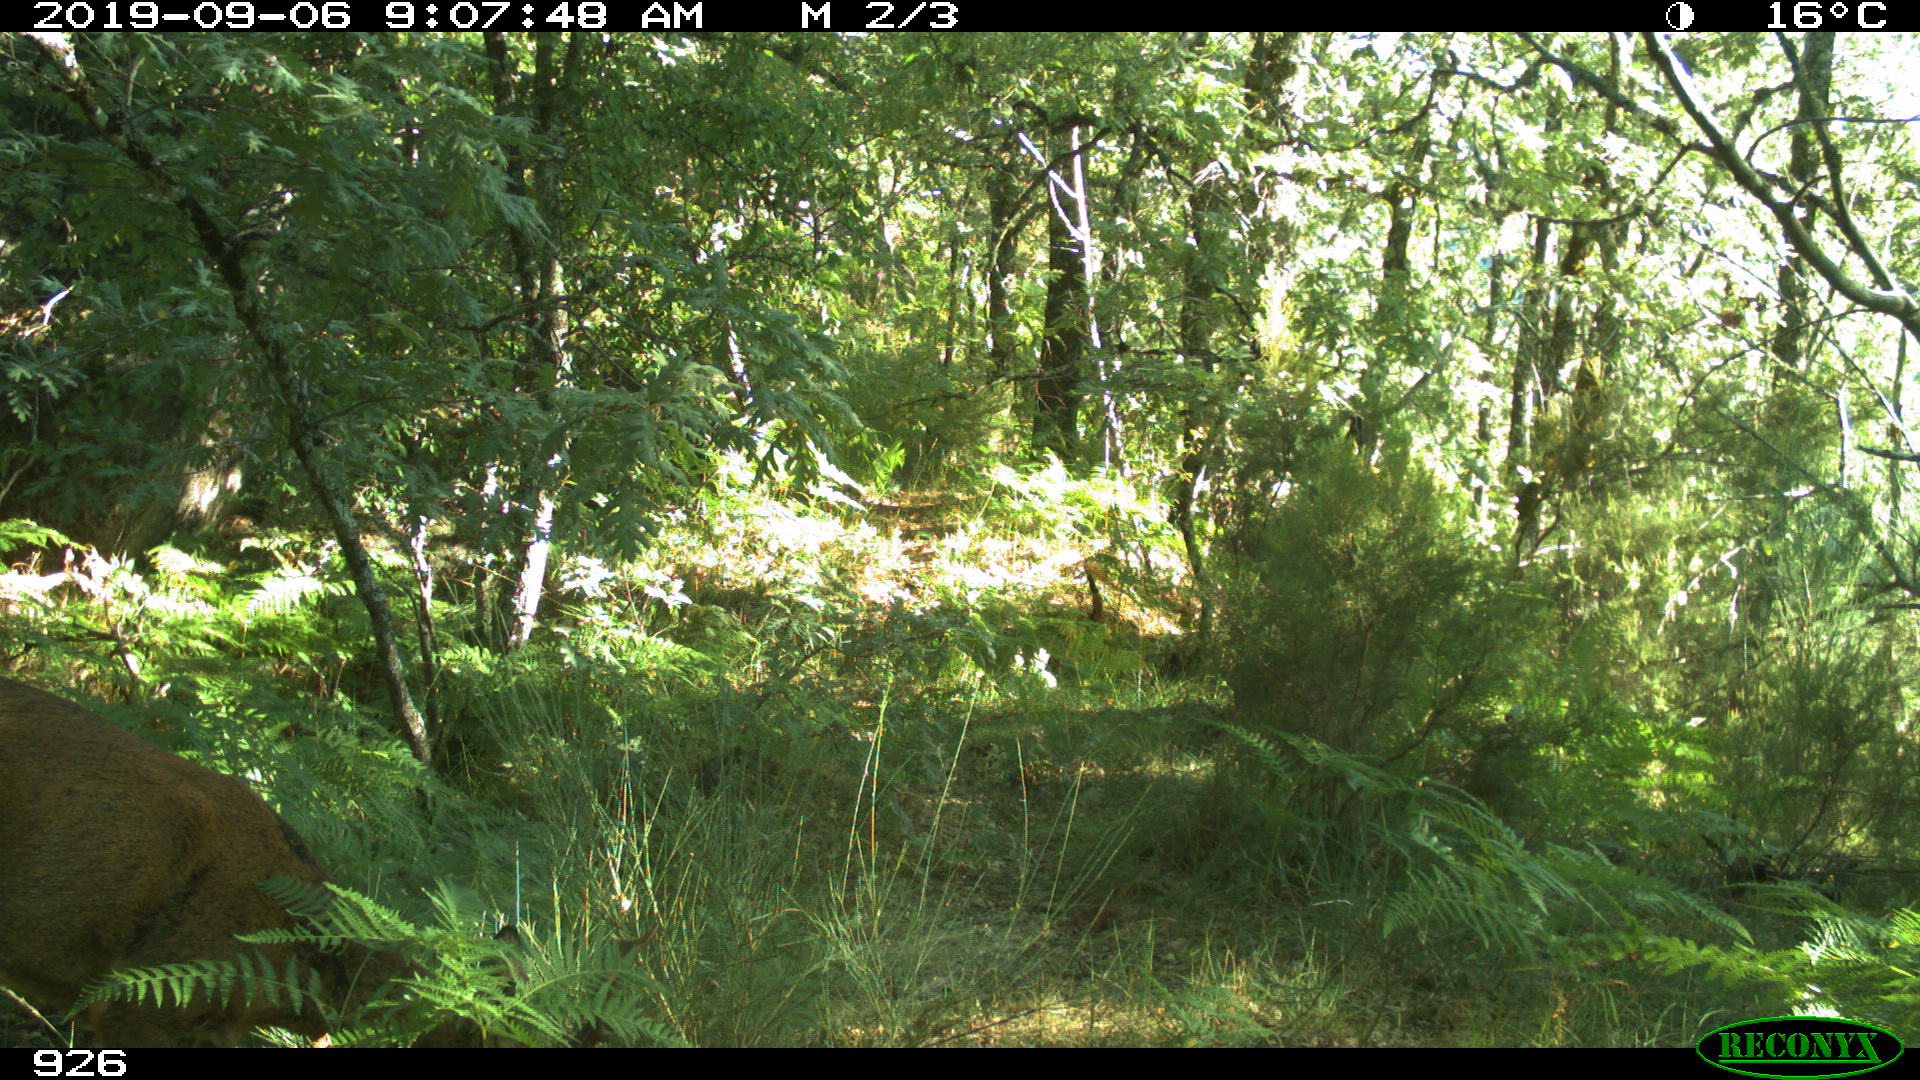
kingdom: Animalia
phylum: Chordata
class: Mammalia
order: Artiodactyla
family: Cervidae
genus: Capreolus
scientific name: Capreolus capreolus
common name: Western roe deer
